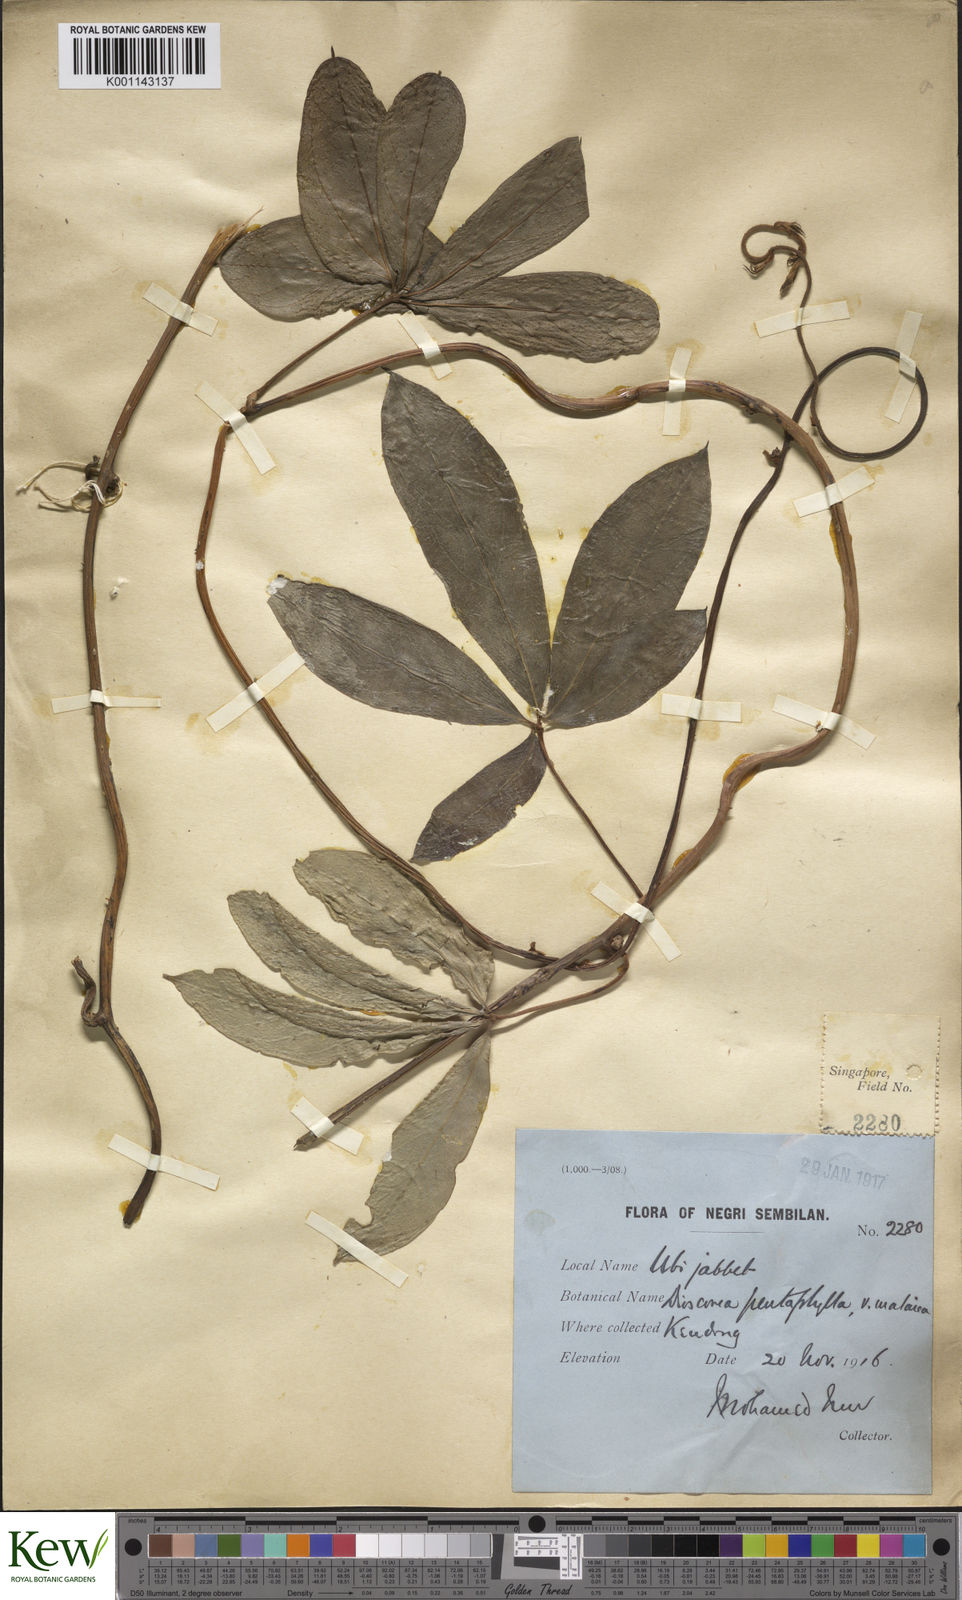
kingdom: Plantae
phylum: Tracheophyta
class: Liliopsida
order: Dioscoreales
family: Dioscoreaceae
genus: Dioscorea
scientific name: Dioscorea pentaphylla
